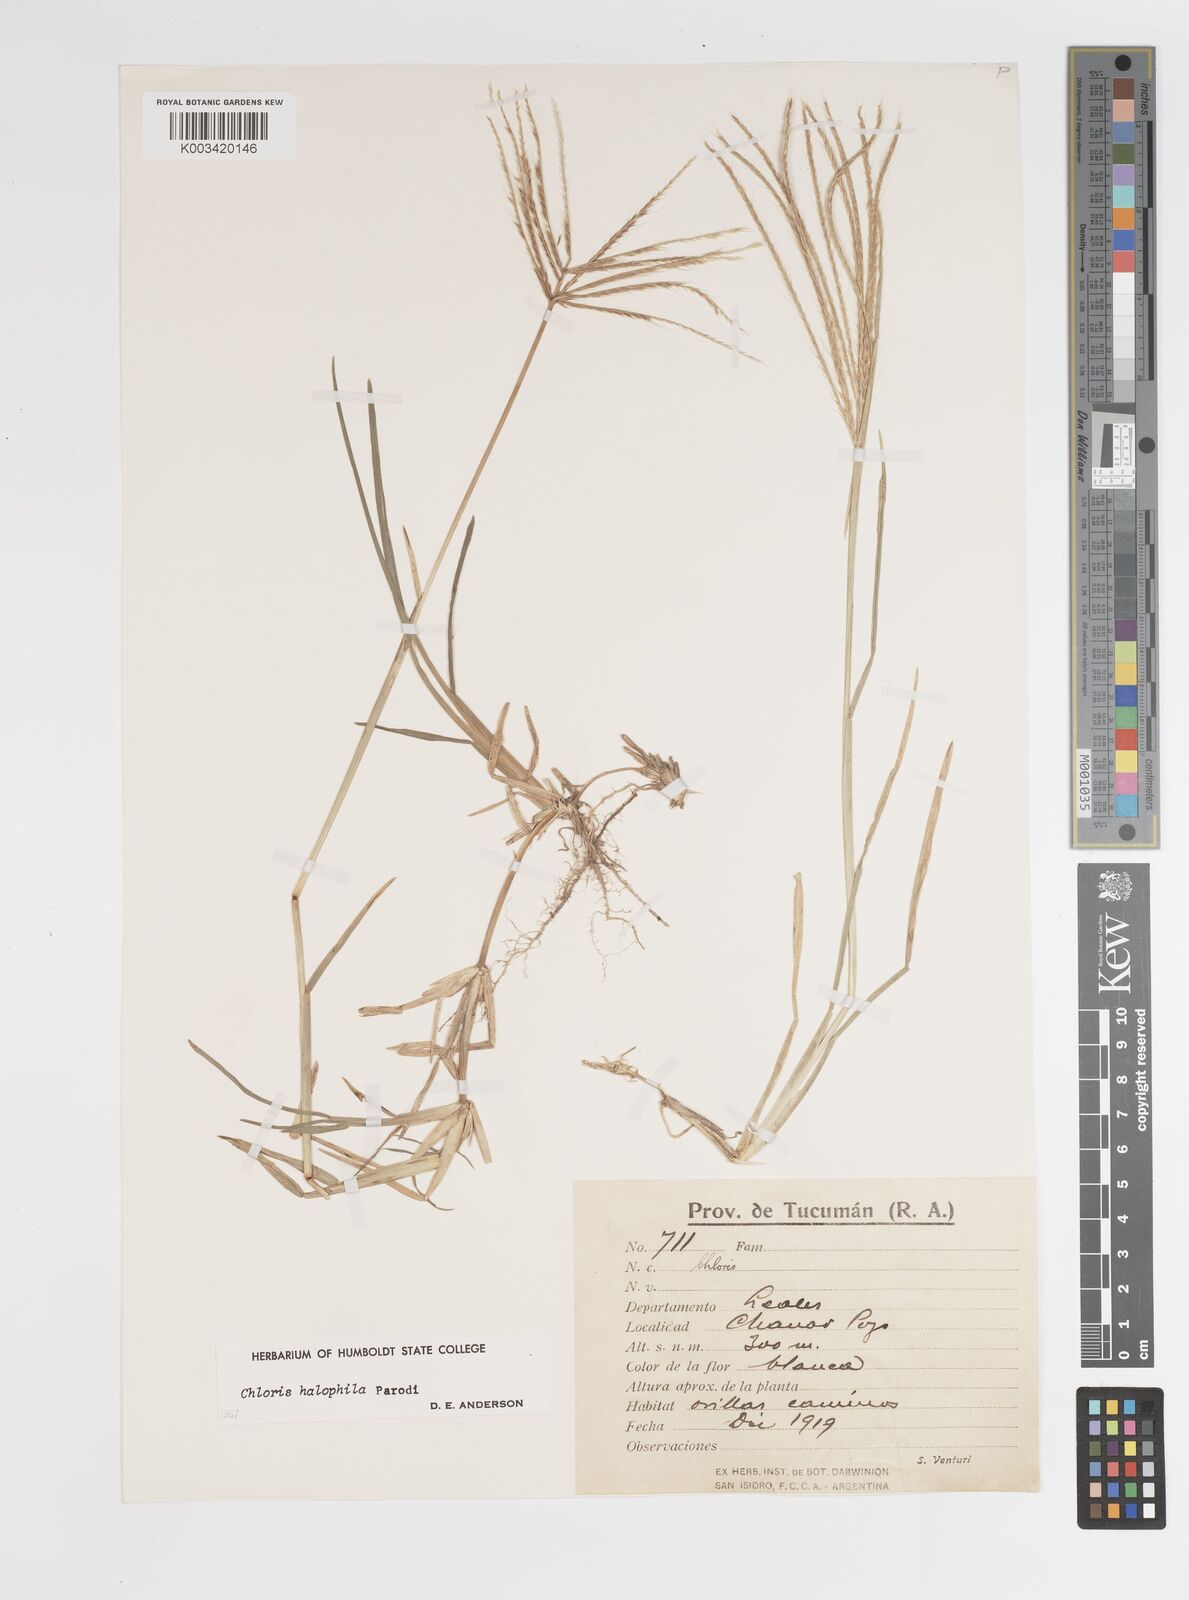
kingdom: Plantae
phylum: Tracheophyta
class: Liliopsida
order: Poales
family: Poaceae
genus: Chloris
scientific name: Chloris halophila
